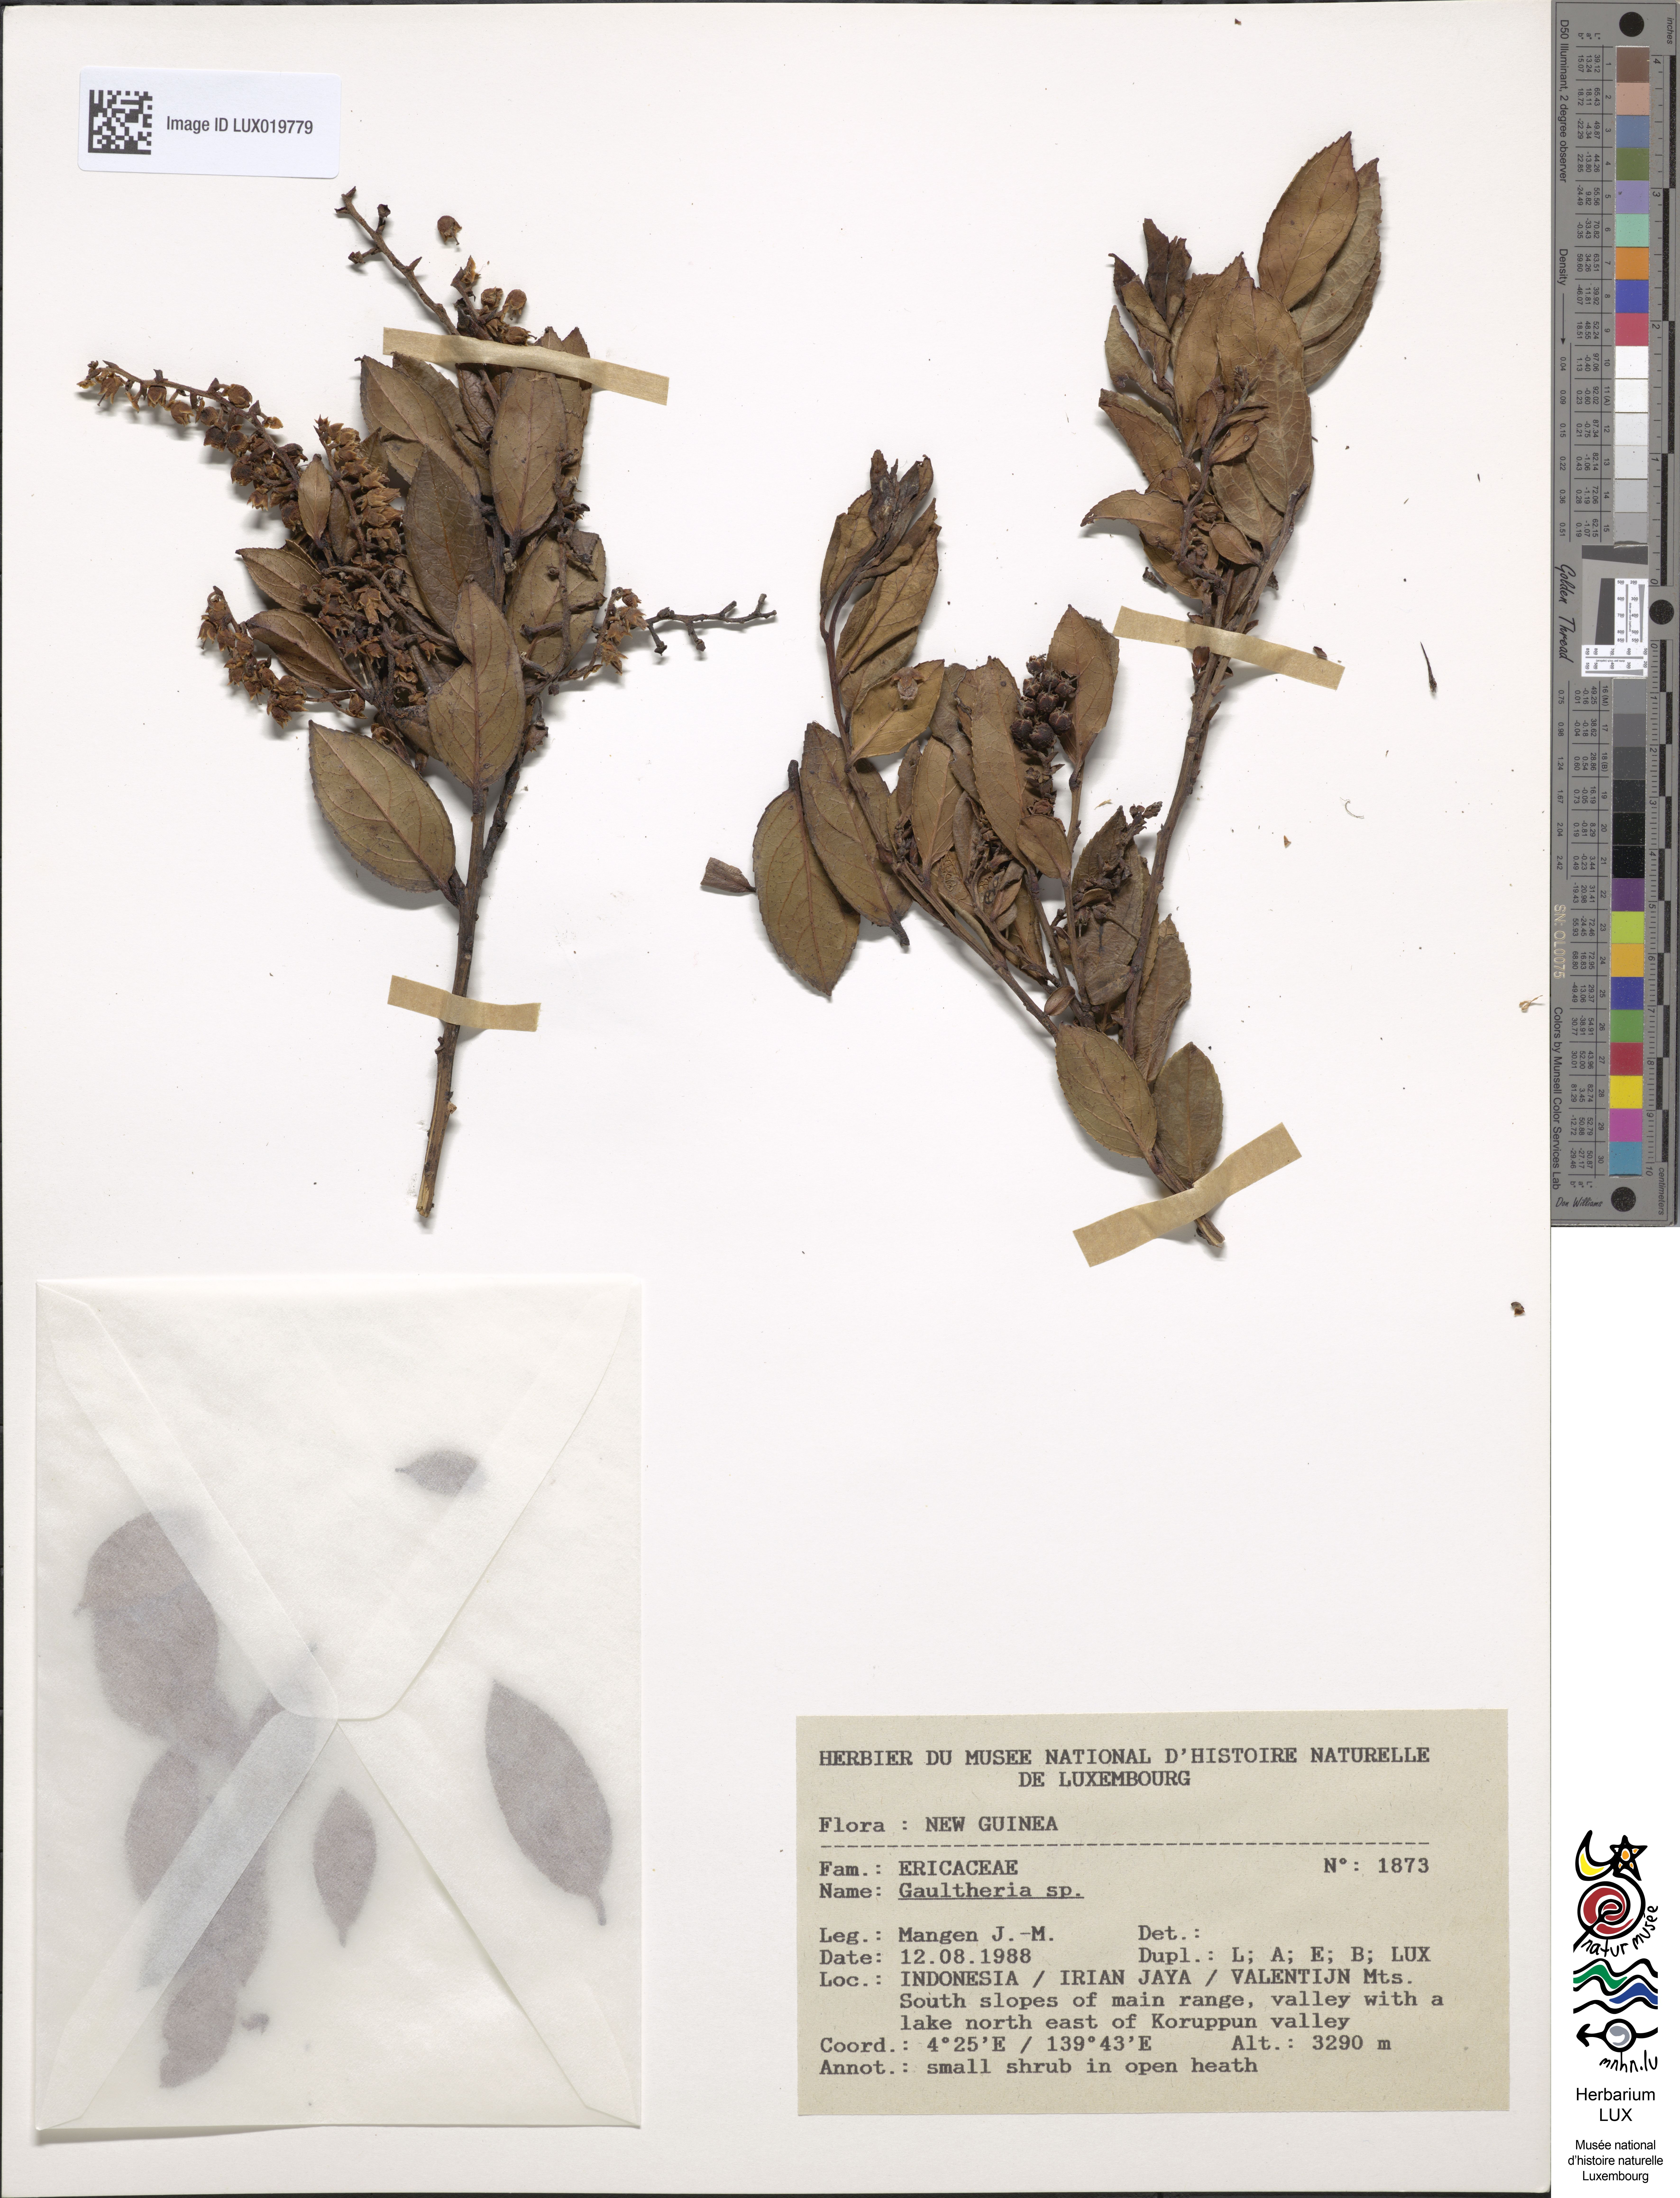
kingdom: Plantae
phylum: Tracheophyta
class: Magnoliopsida
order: Ericales
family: Ericaceae
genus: Gaultheria
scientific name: Gaultheria
